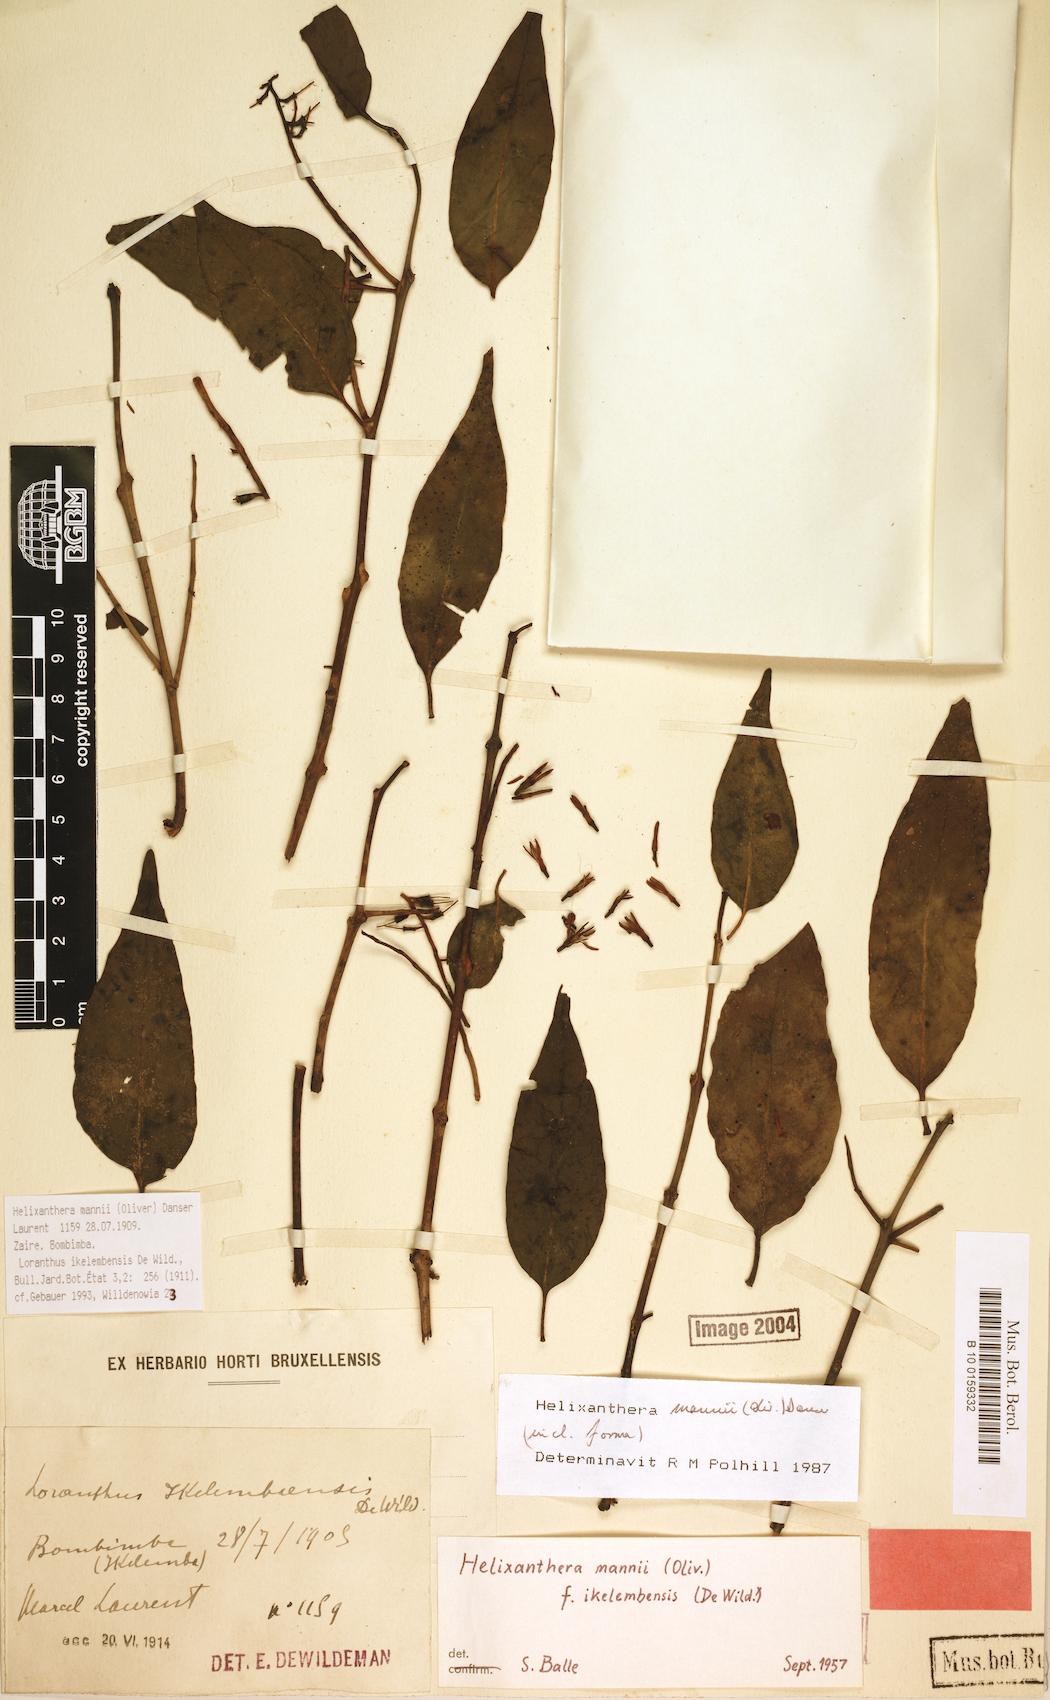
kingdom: Plantae
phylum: Tracheophyta
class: Magnoliopsida
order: Santalales
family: Loranthaceae
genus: Helixanthera
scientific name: Helixanthera mannii
